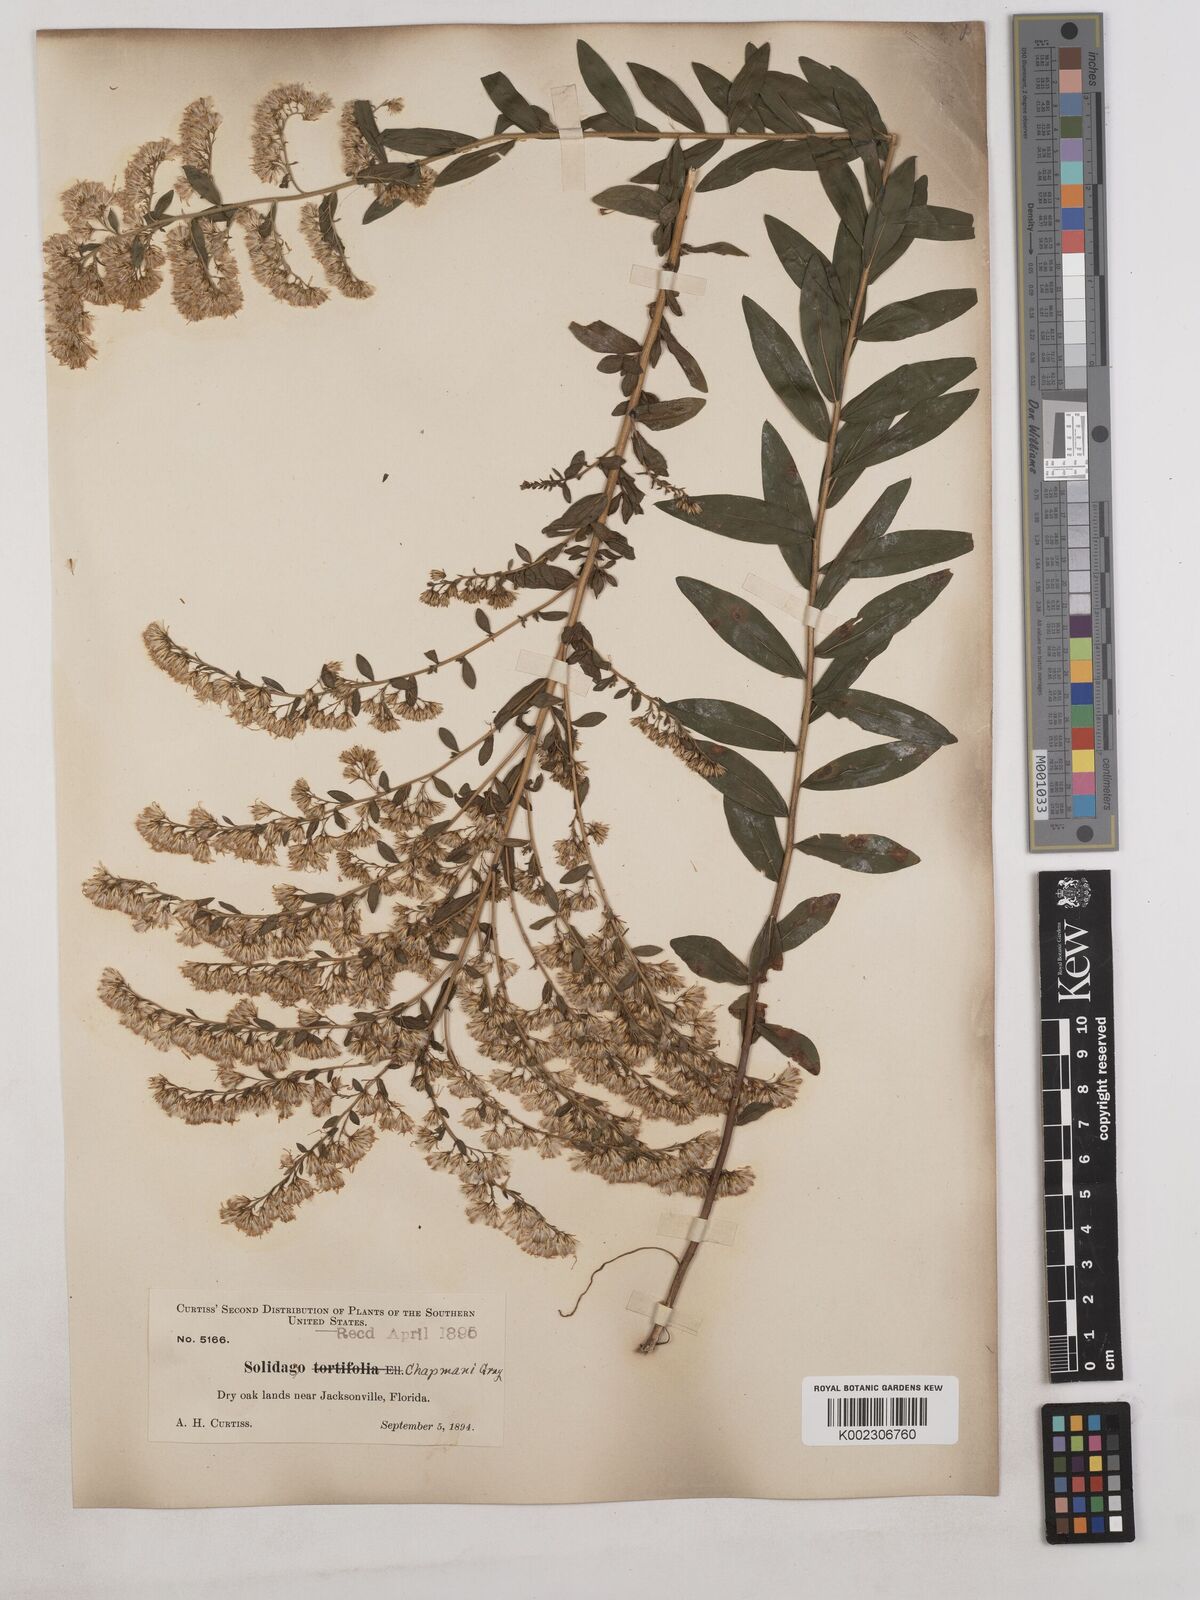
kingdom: Plantae
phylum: Tracheophyta
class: Magnoliopsida
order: Asterales
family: Asteraceae
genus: Solidago
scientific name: Solidago chapmanii
